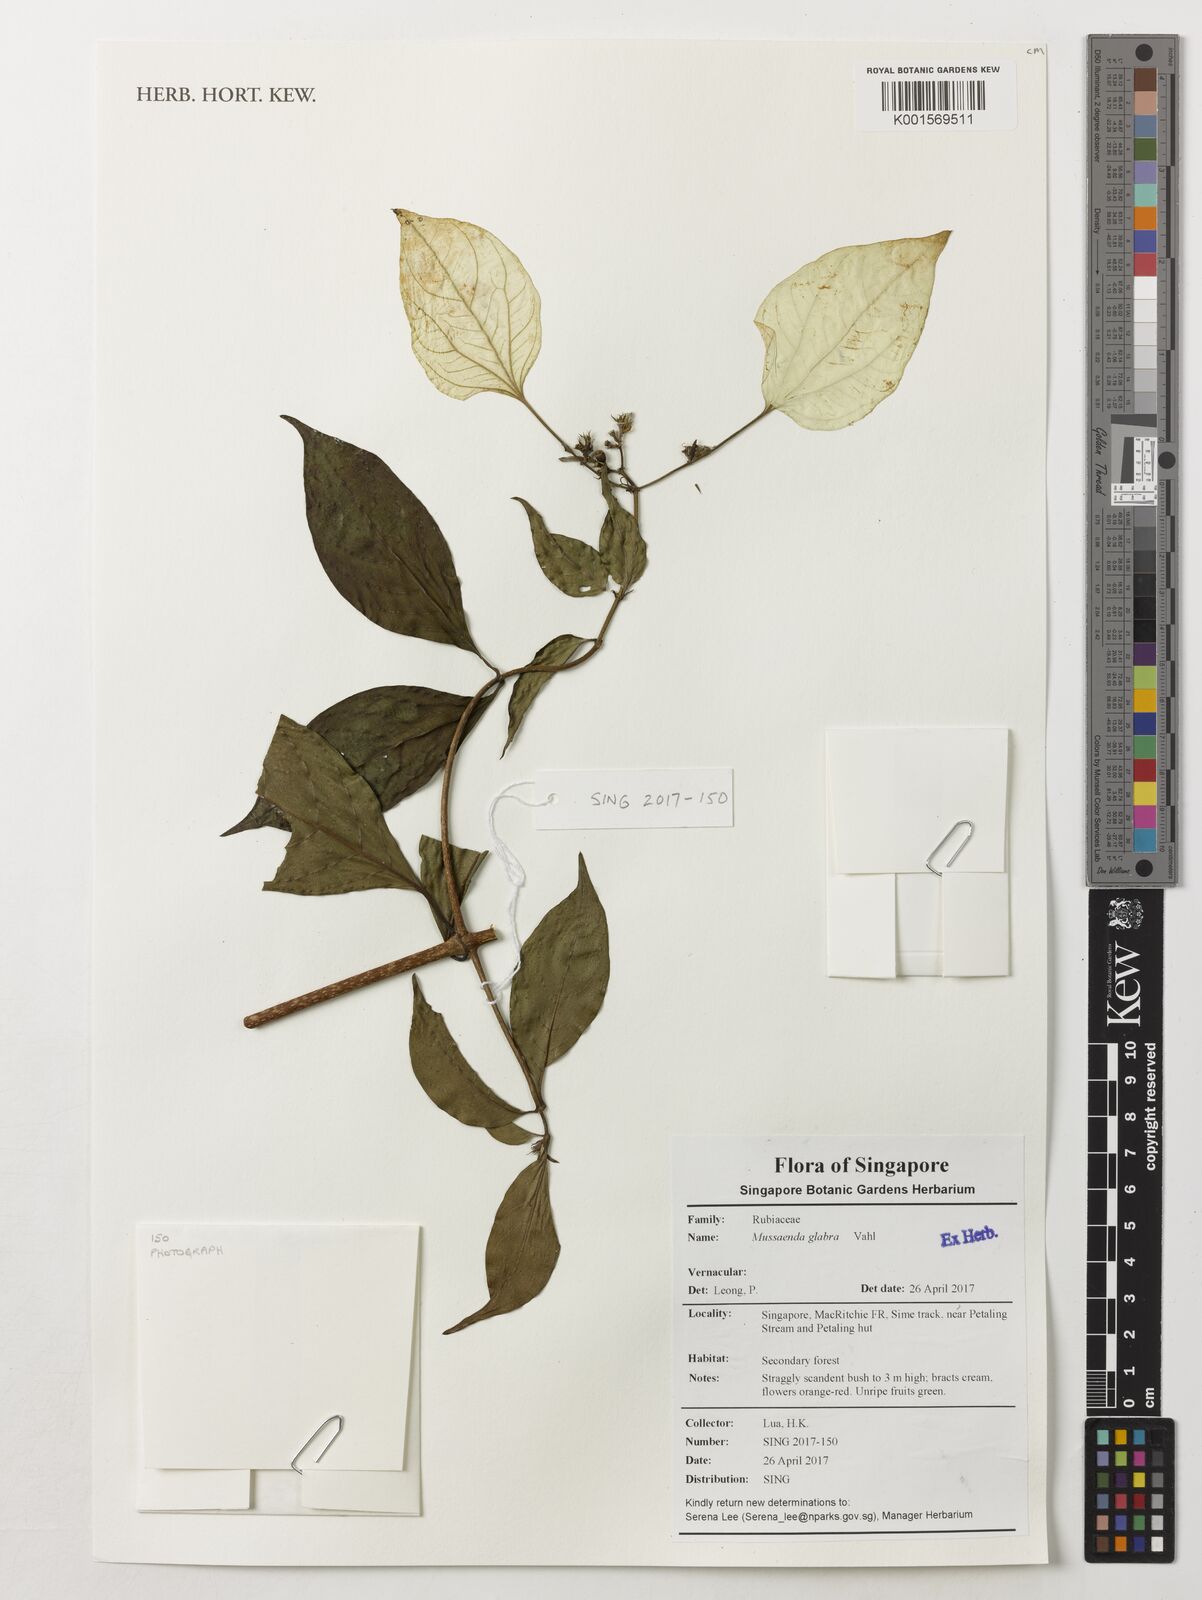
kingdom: Plantae
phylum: Tracheophyta
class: Magnoliopsida
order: Gentianales
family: Rubiaceae
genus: Mussaenda
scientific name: Mussaenda glabra
